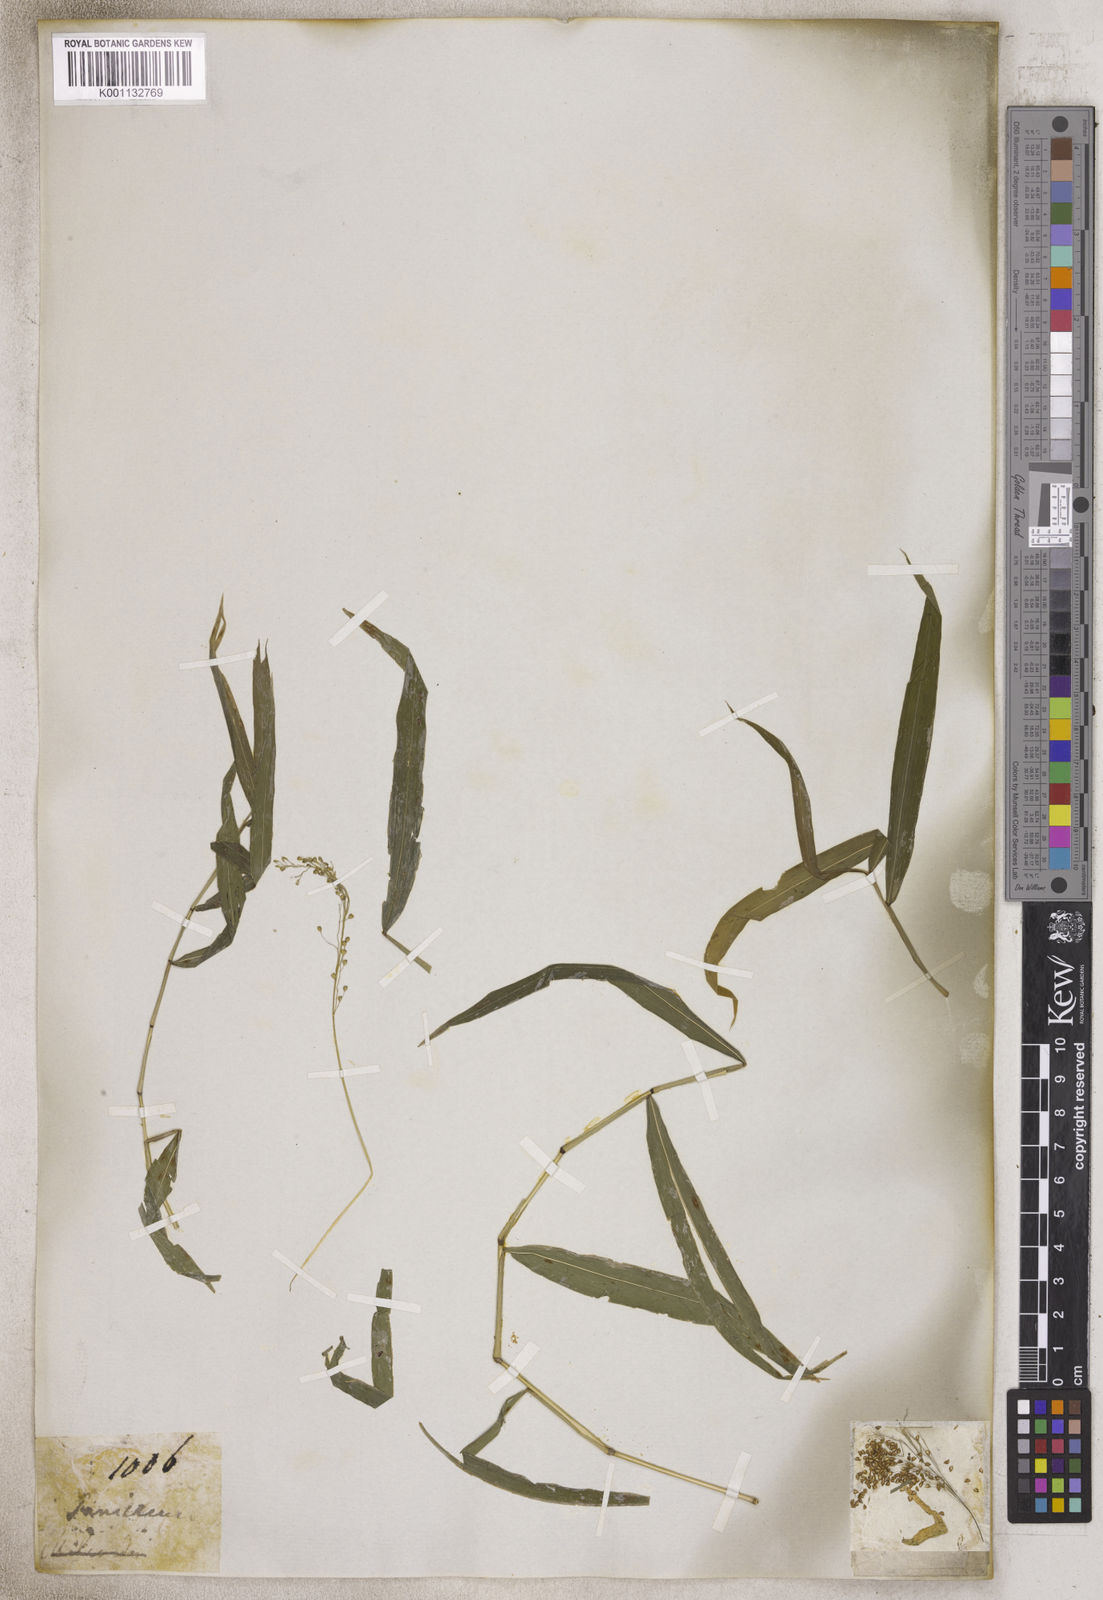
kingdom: Plantae
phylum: Tracheophyta
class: Liliopsida
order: Poales
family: Poaceae
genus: Panicum
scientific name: Panicum
